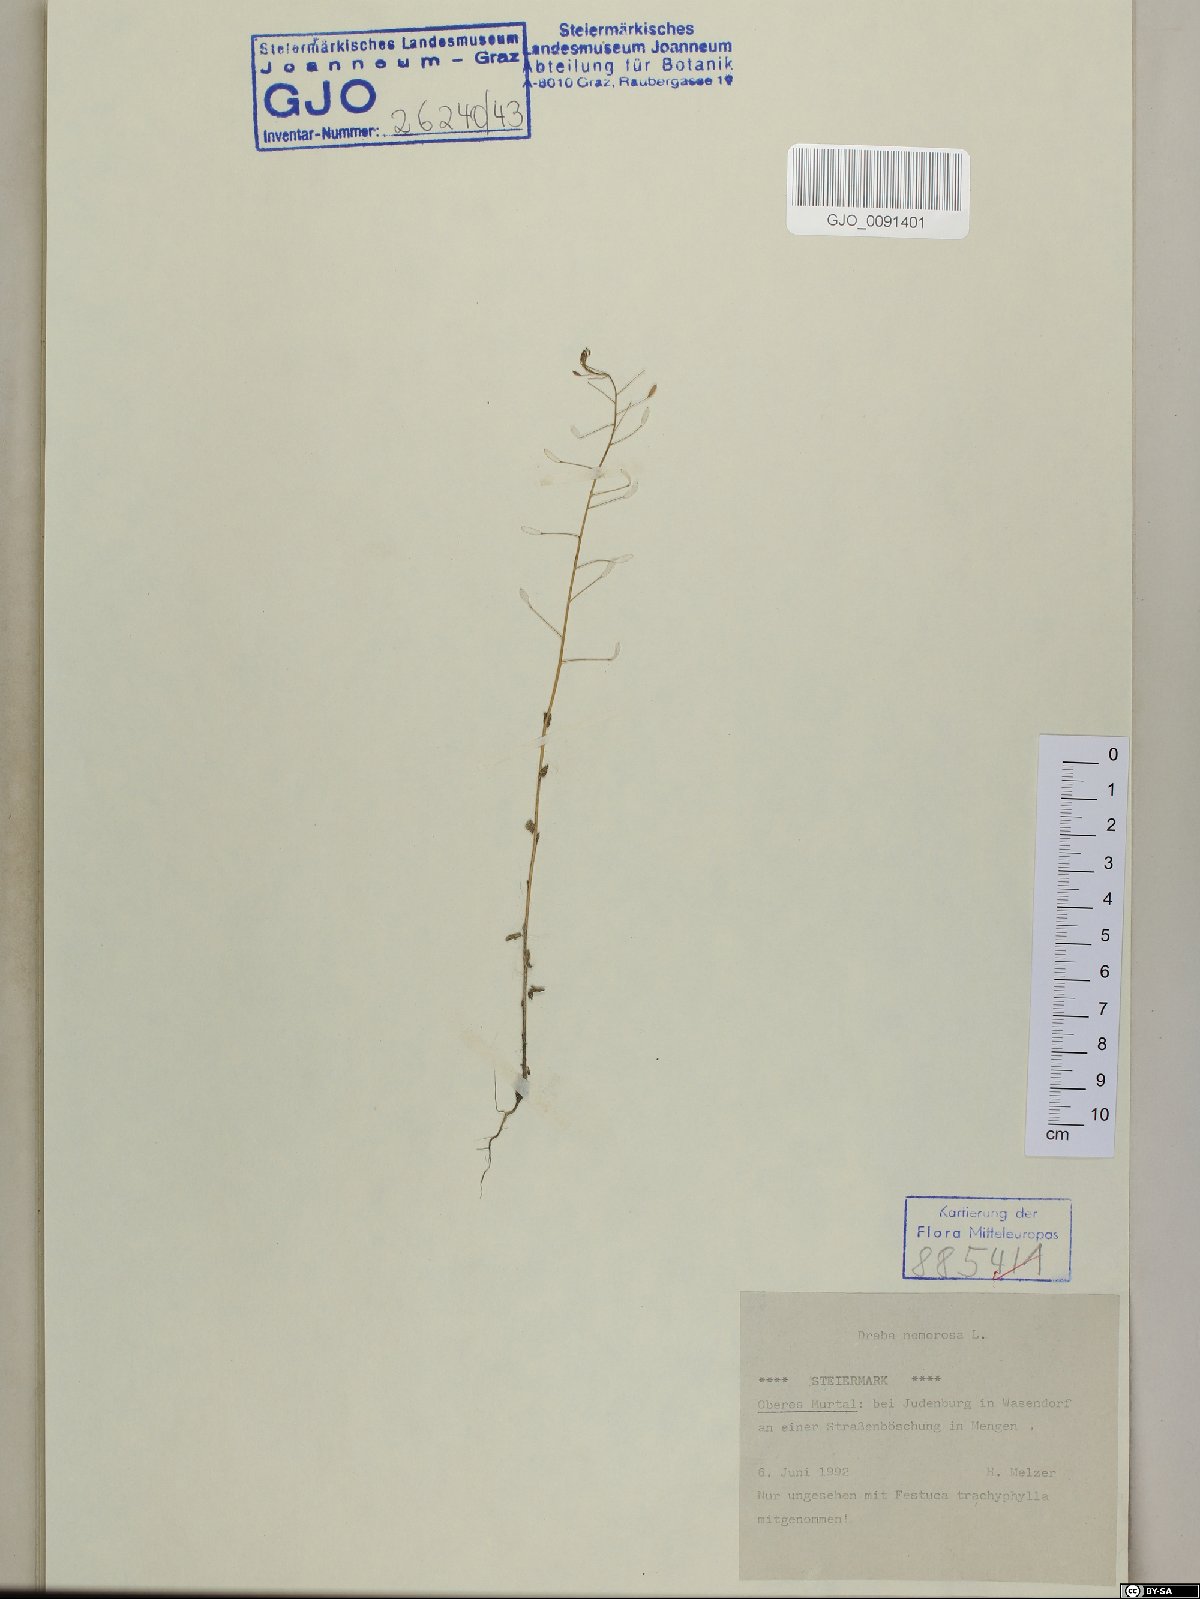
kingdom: Plantae
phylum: Tracheophyta
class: Magnoliopsida
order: Brassicales
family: Brassicaceae
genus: Draba
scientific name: Draba nemorosa
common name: Wood whitlow-grass
